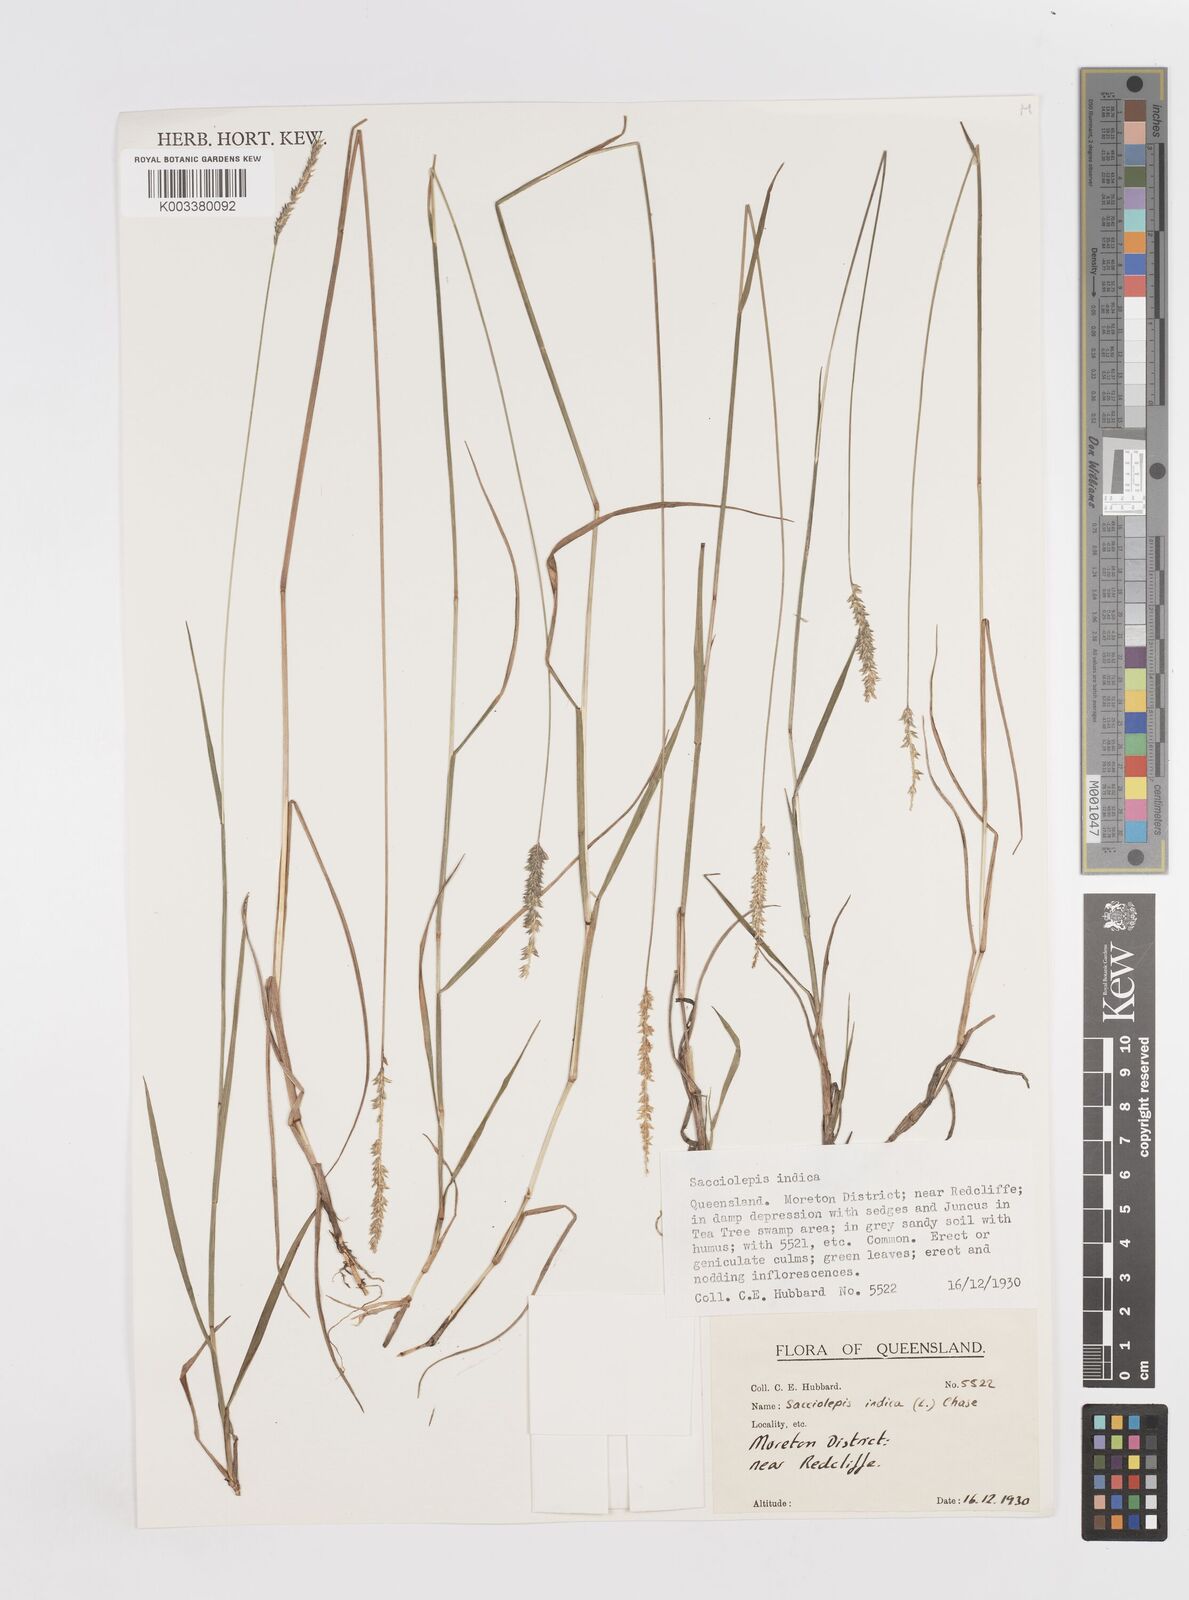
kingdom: Plantae
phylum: Tracheophyta
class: Liliopsida
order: Poales
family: Poaceae
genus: Sacciolepis
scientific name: Sacciolepis indica
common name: Glenwoodgrass
